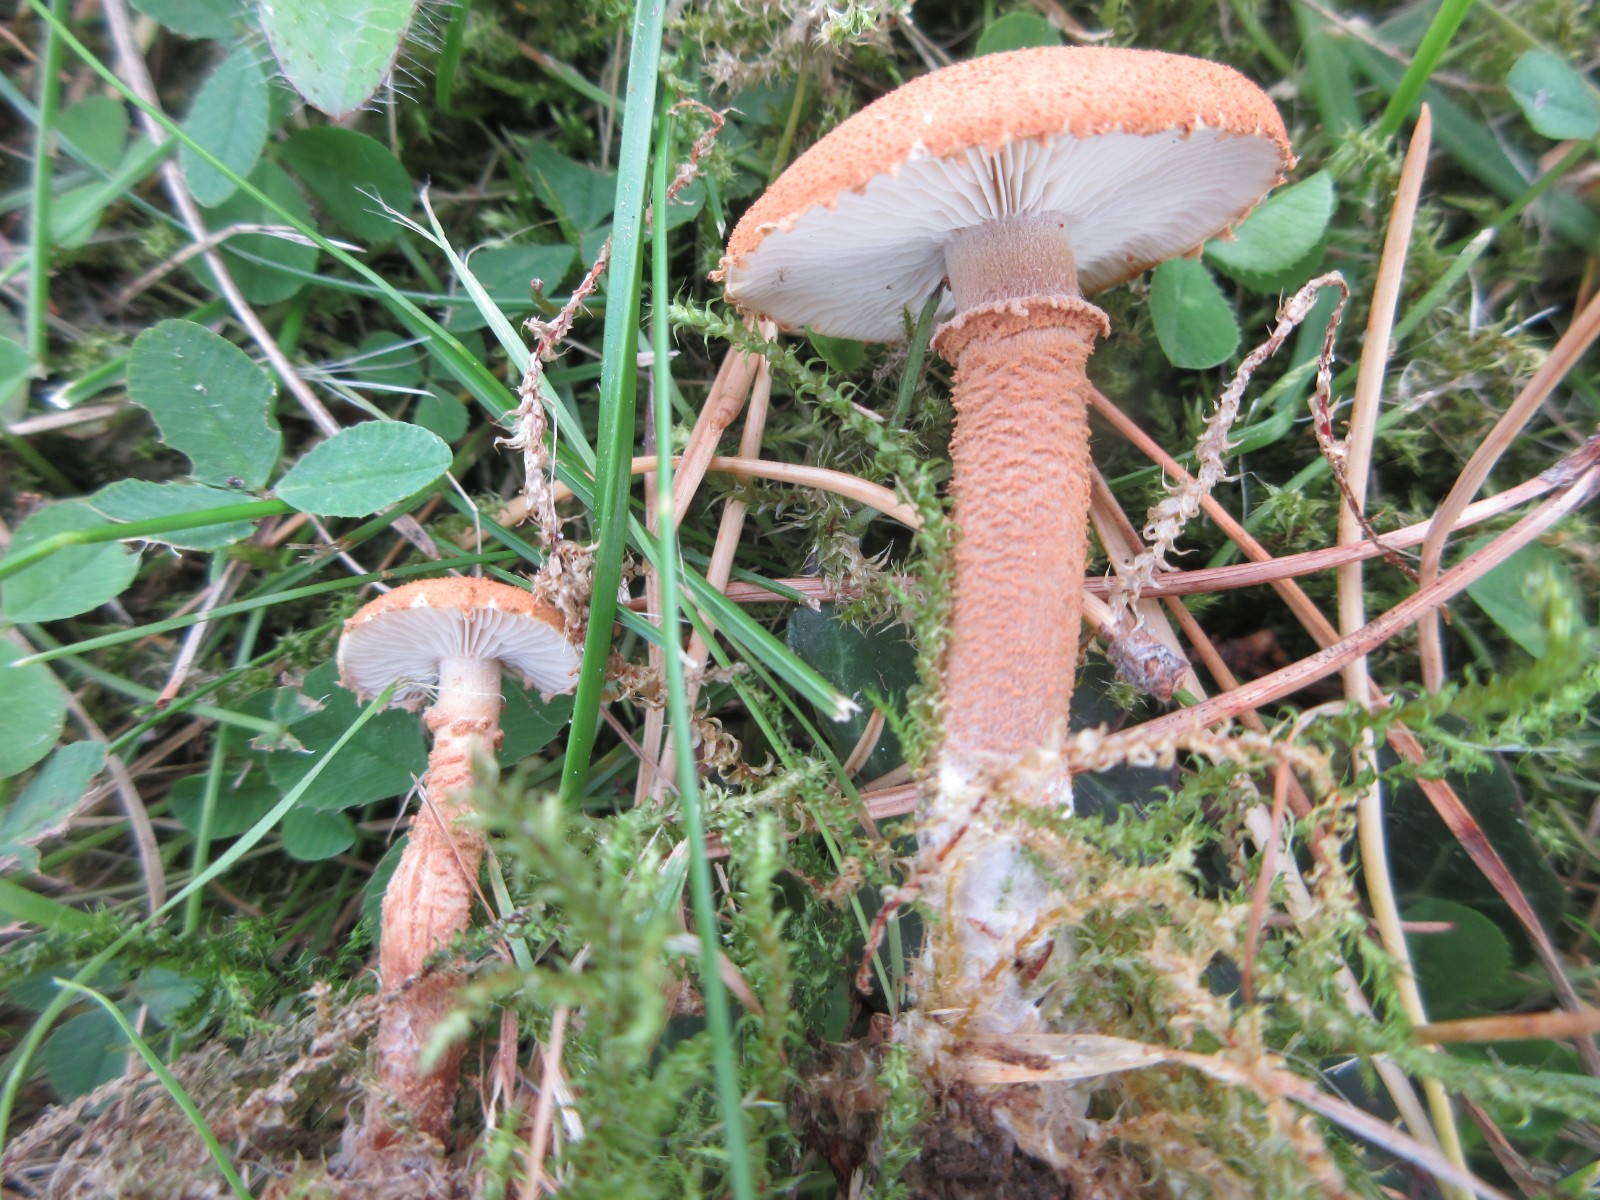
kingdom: Fungi
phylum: Basidiomycota
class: Agaricomycetes
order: Agaricales
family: Tricholomataceae
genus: Cystoderma
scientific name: Cystoderma amianthinum
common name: okkergul grynhat
